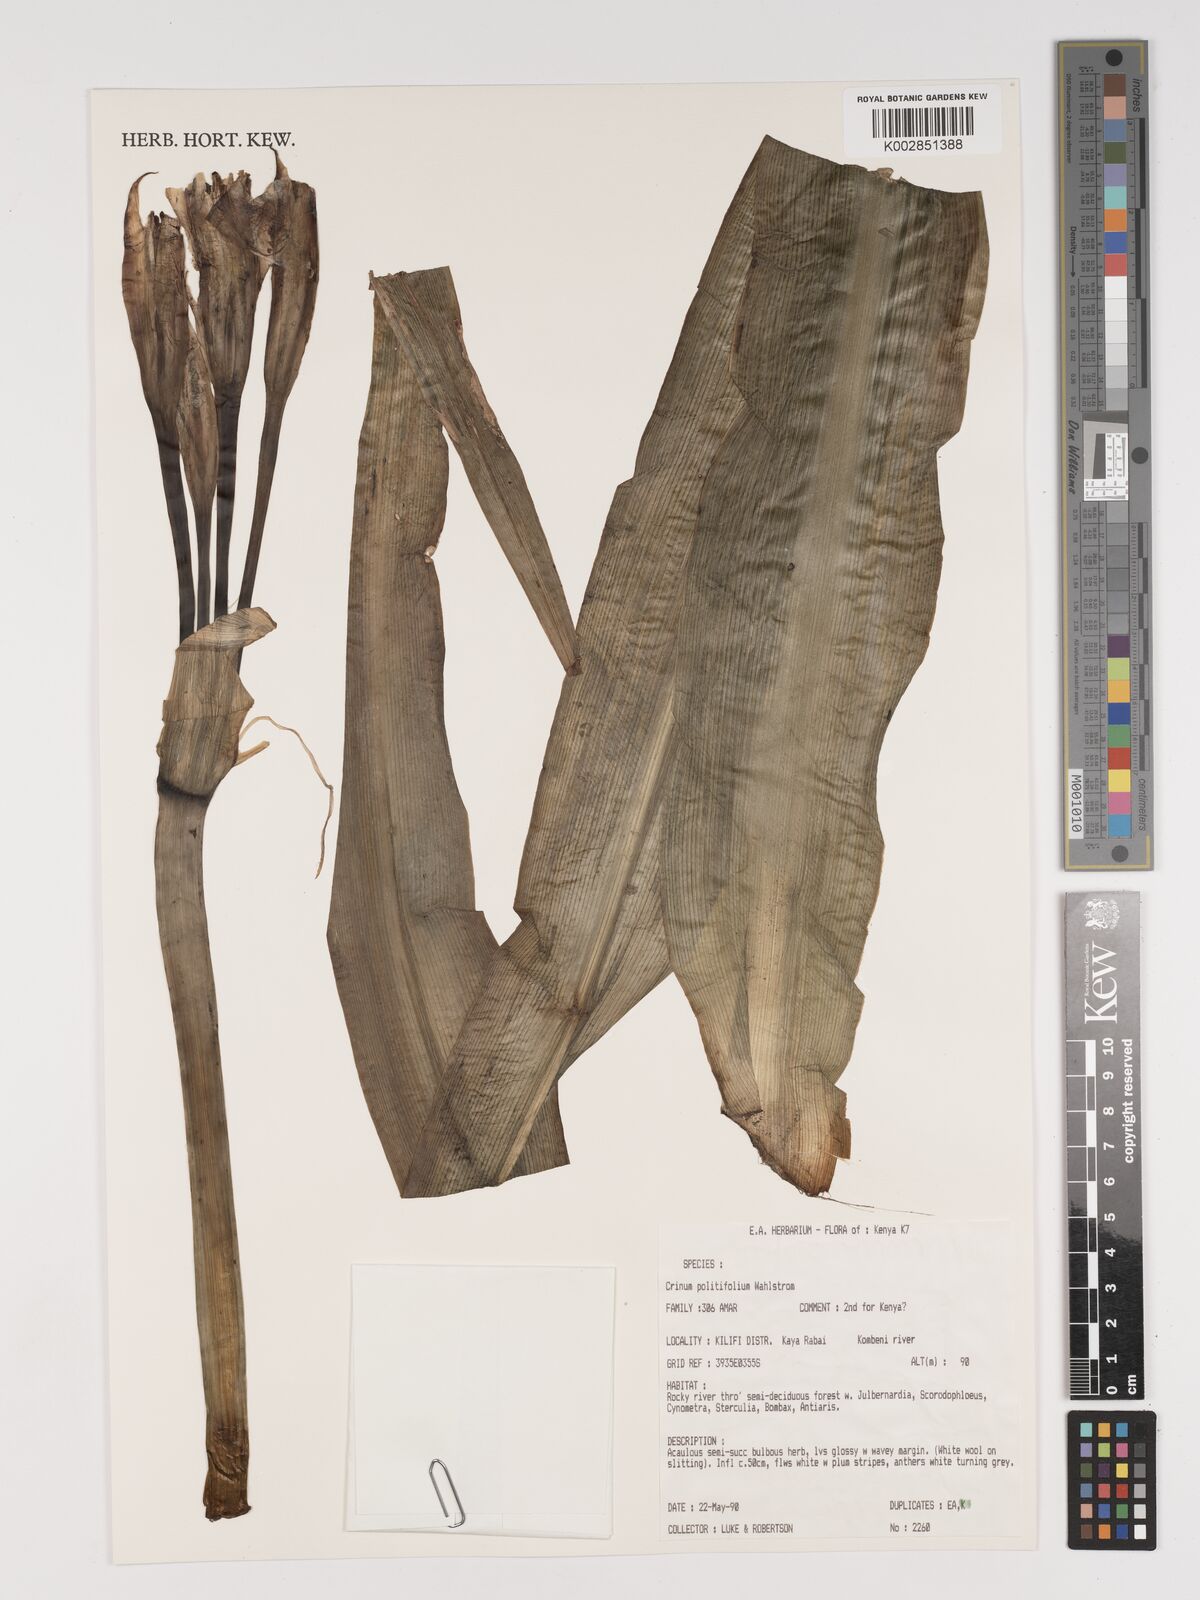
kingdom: Plantae
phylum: Tracheophyta
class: Liliopsida
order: Asparagales
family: Amaryllidaceae
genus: Crinum
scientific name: Crinum politifolium
